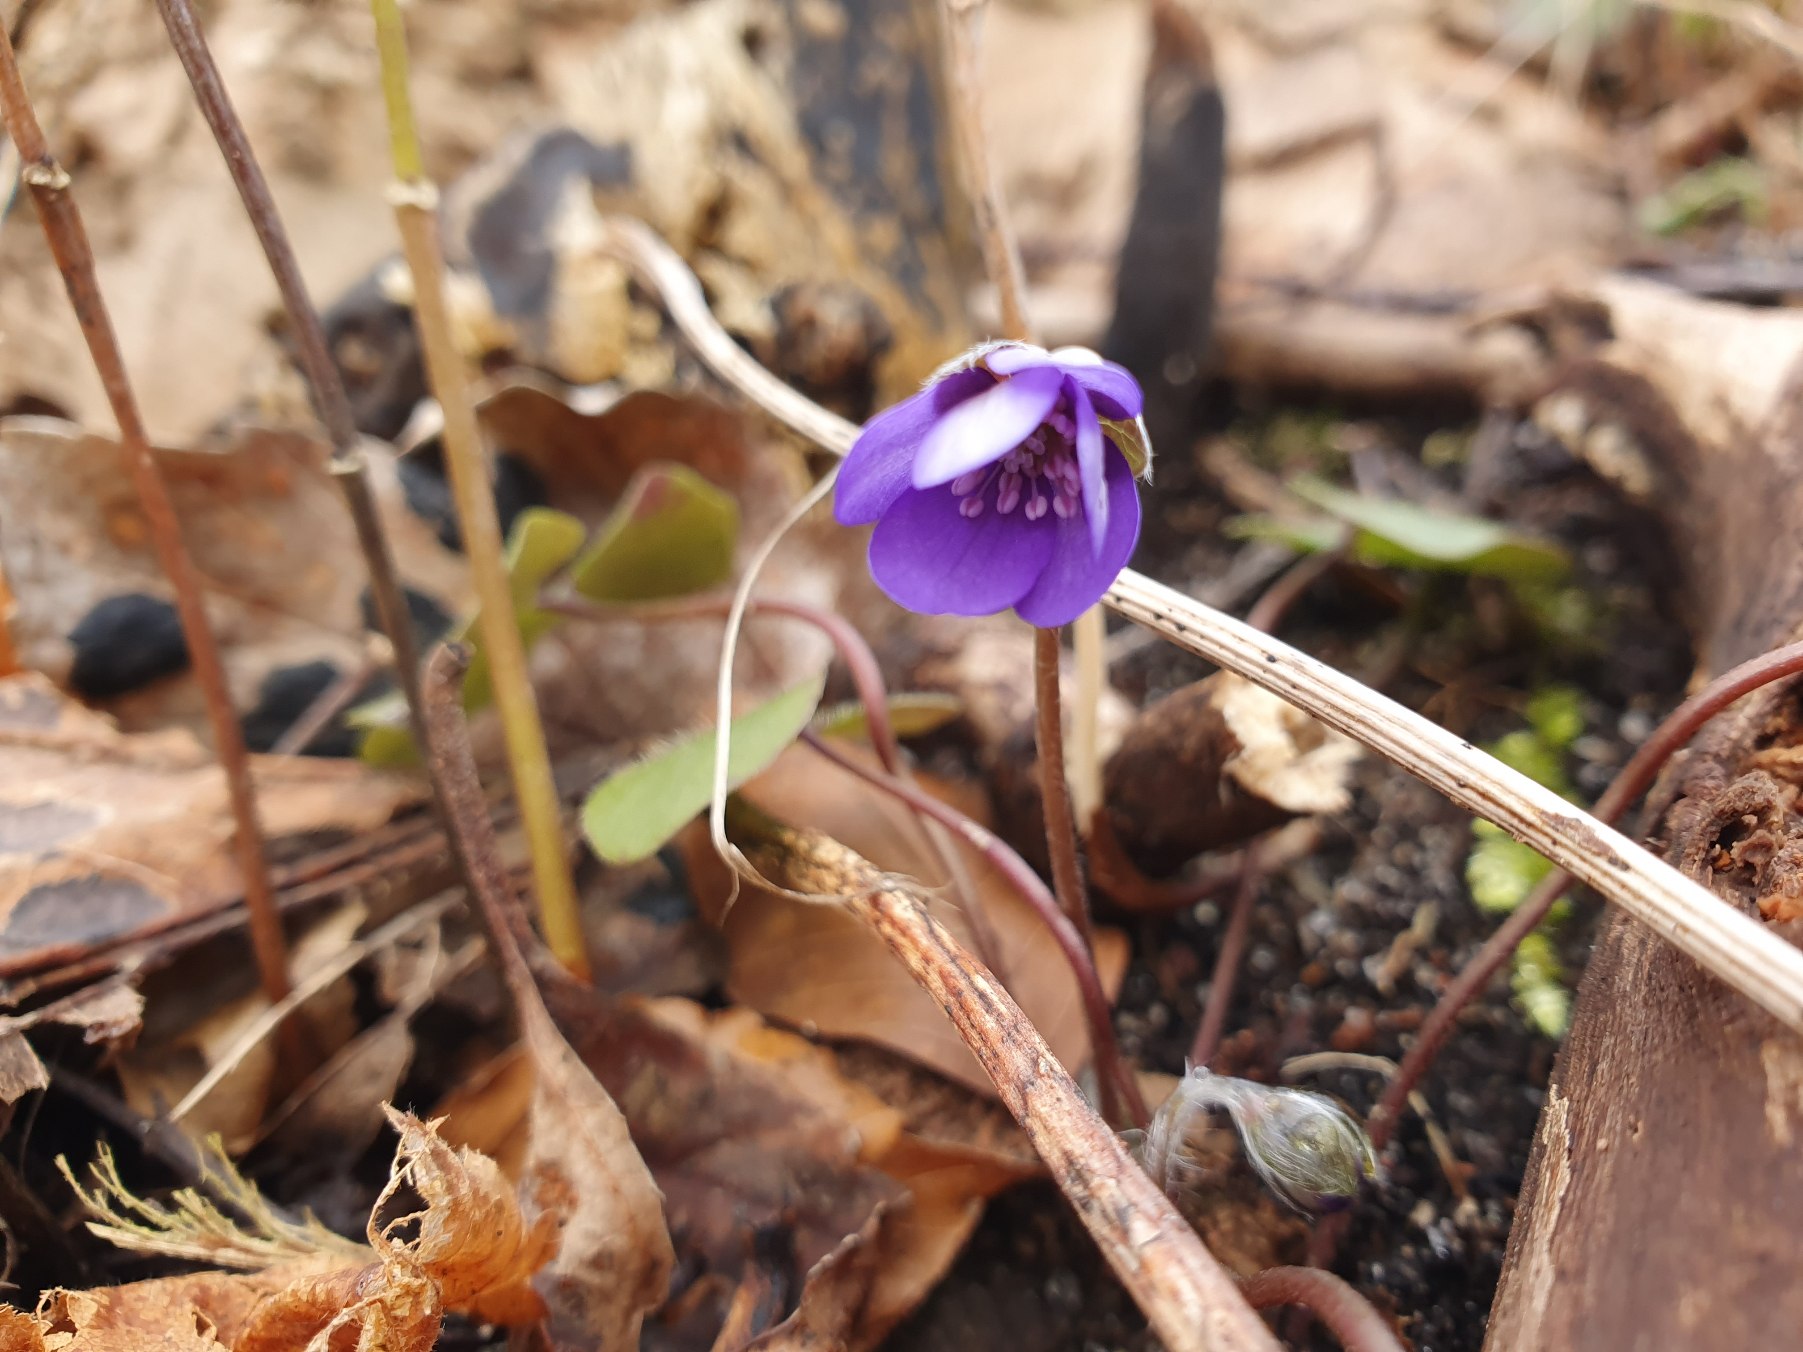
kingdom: Plantae
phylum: Tracheophyta
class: Magnoliopsida
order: Ranunculales
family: Ranunculaceae
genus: Hepatica
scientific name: Hepatica nobilis
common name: Blå anemone
